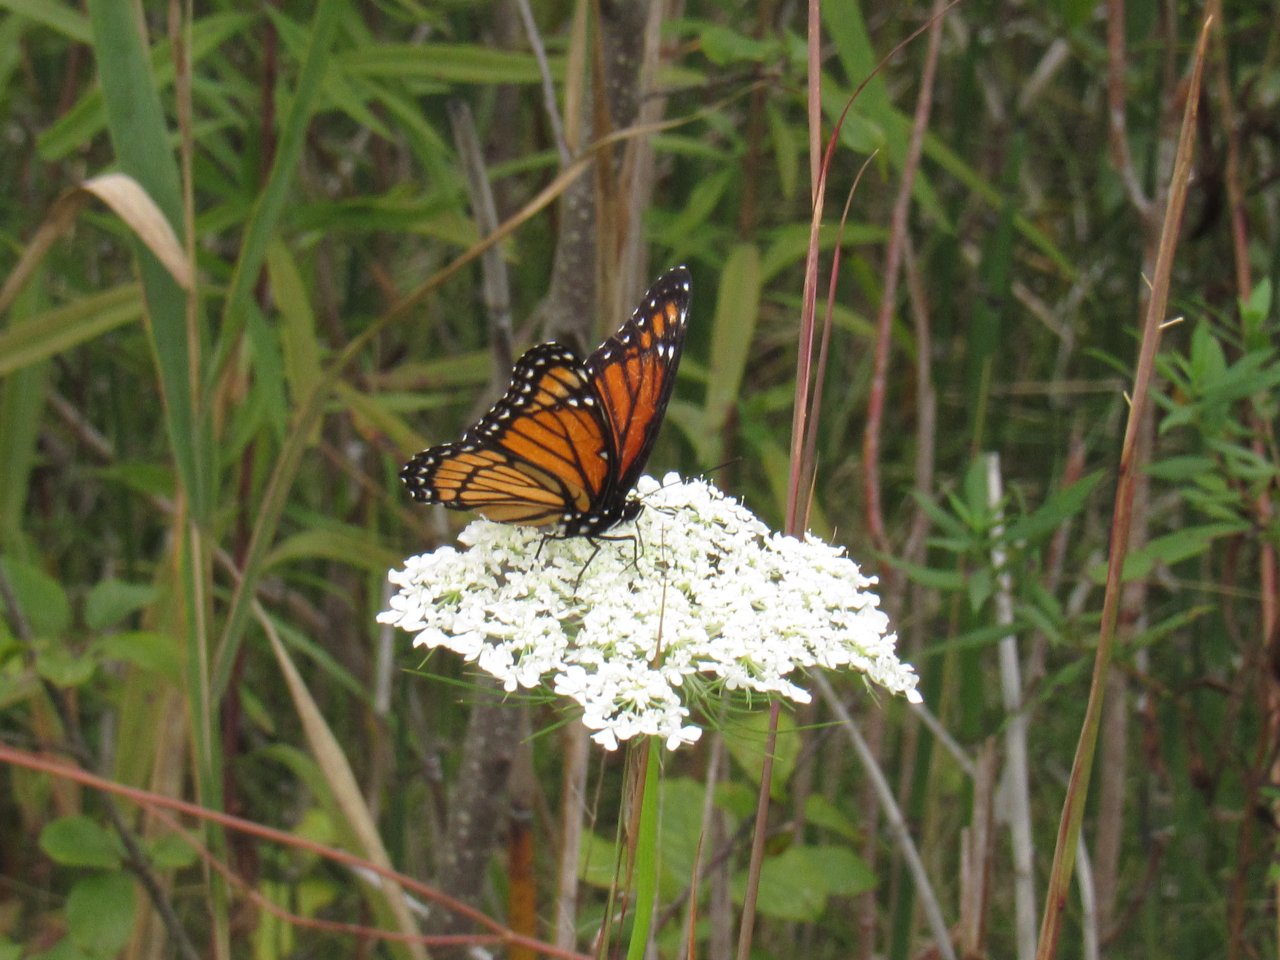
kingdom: Animalia
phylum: Arthropoda
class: Insecta
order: Lepidoptera
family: Nymphalidae
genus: Limenitis
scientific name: Limenitis archippus
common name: Viceroy
